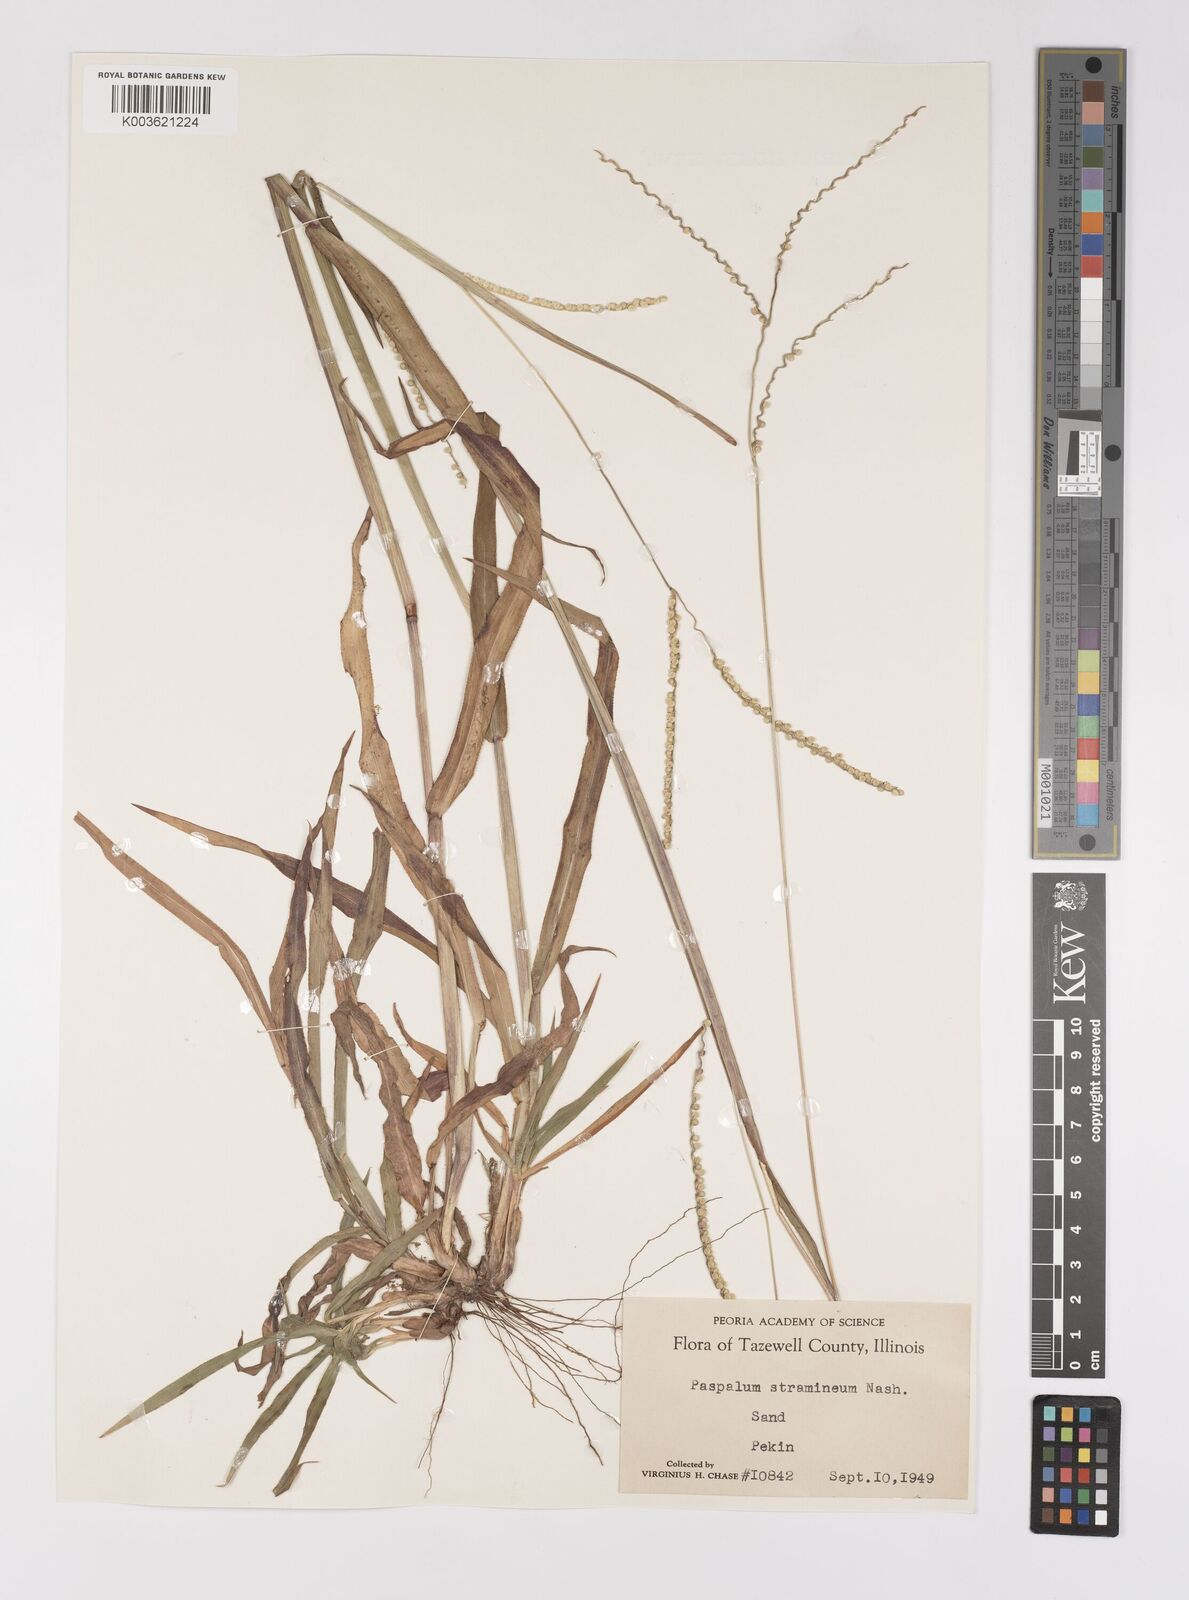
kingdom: Plantae
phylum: Tracheophyta
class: Liliopsida
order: Poales
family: Poaceae
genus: Paspalum
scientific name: Paspalum setaceum
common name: Slender paspalum
